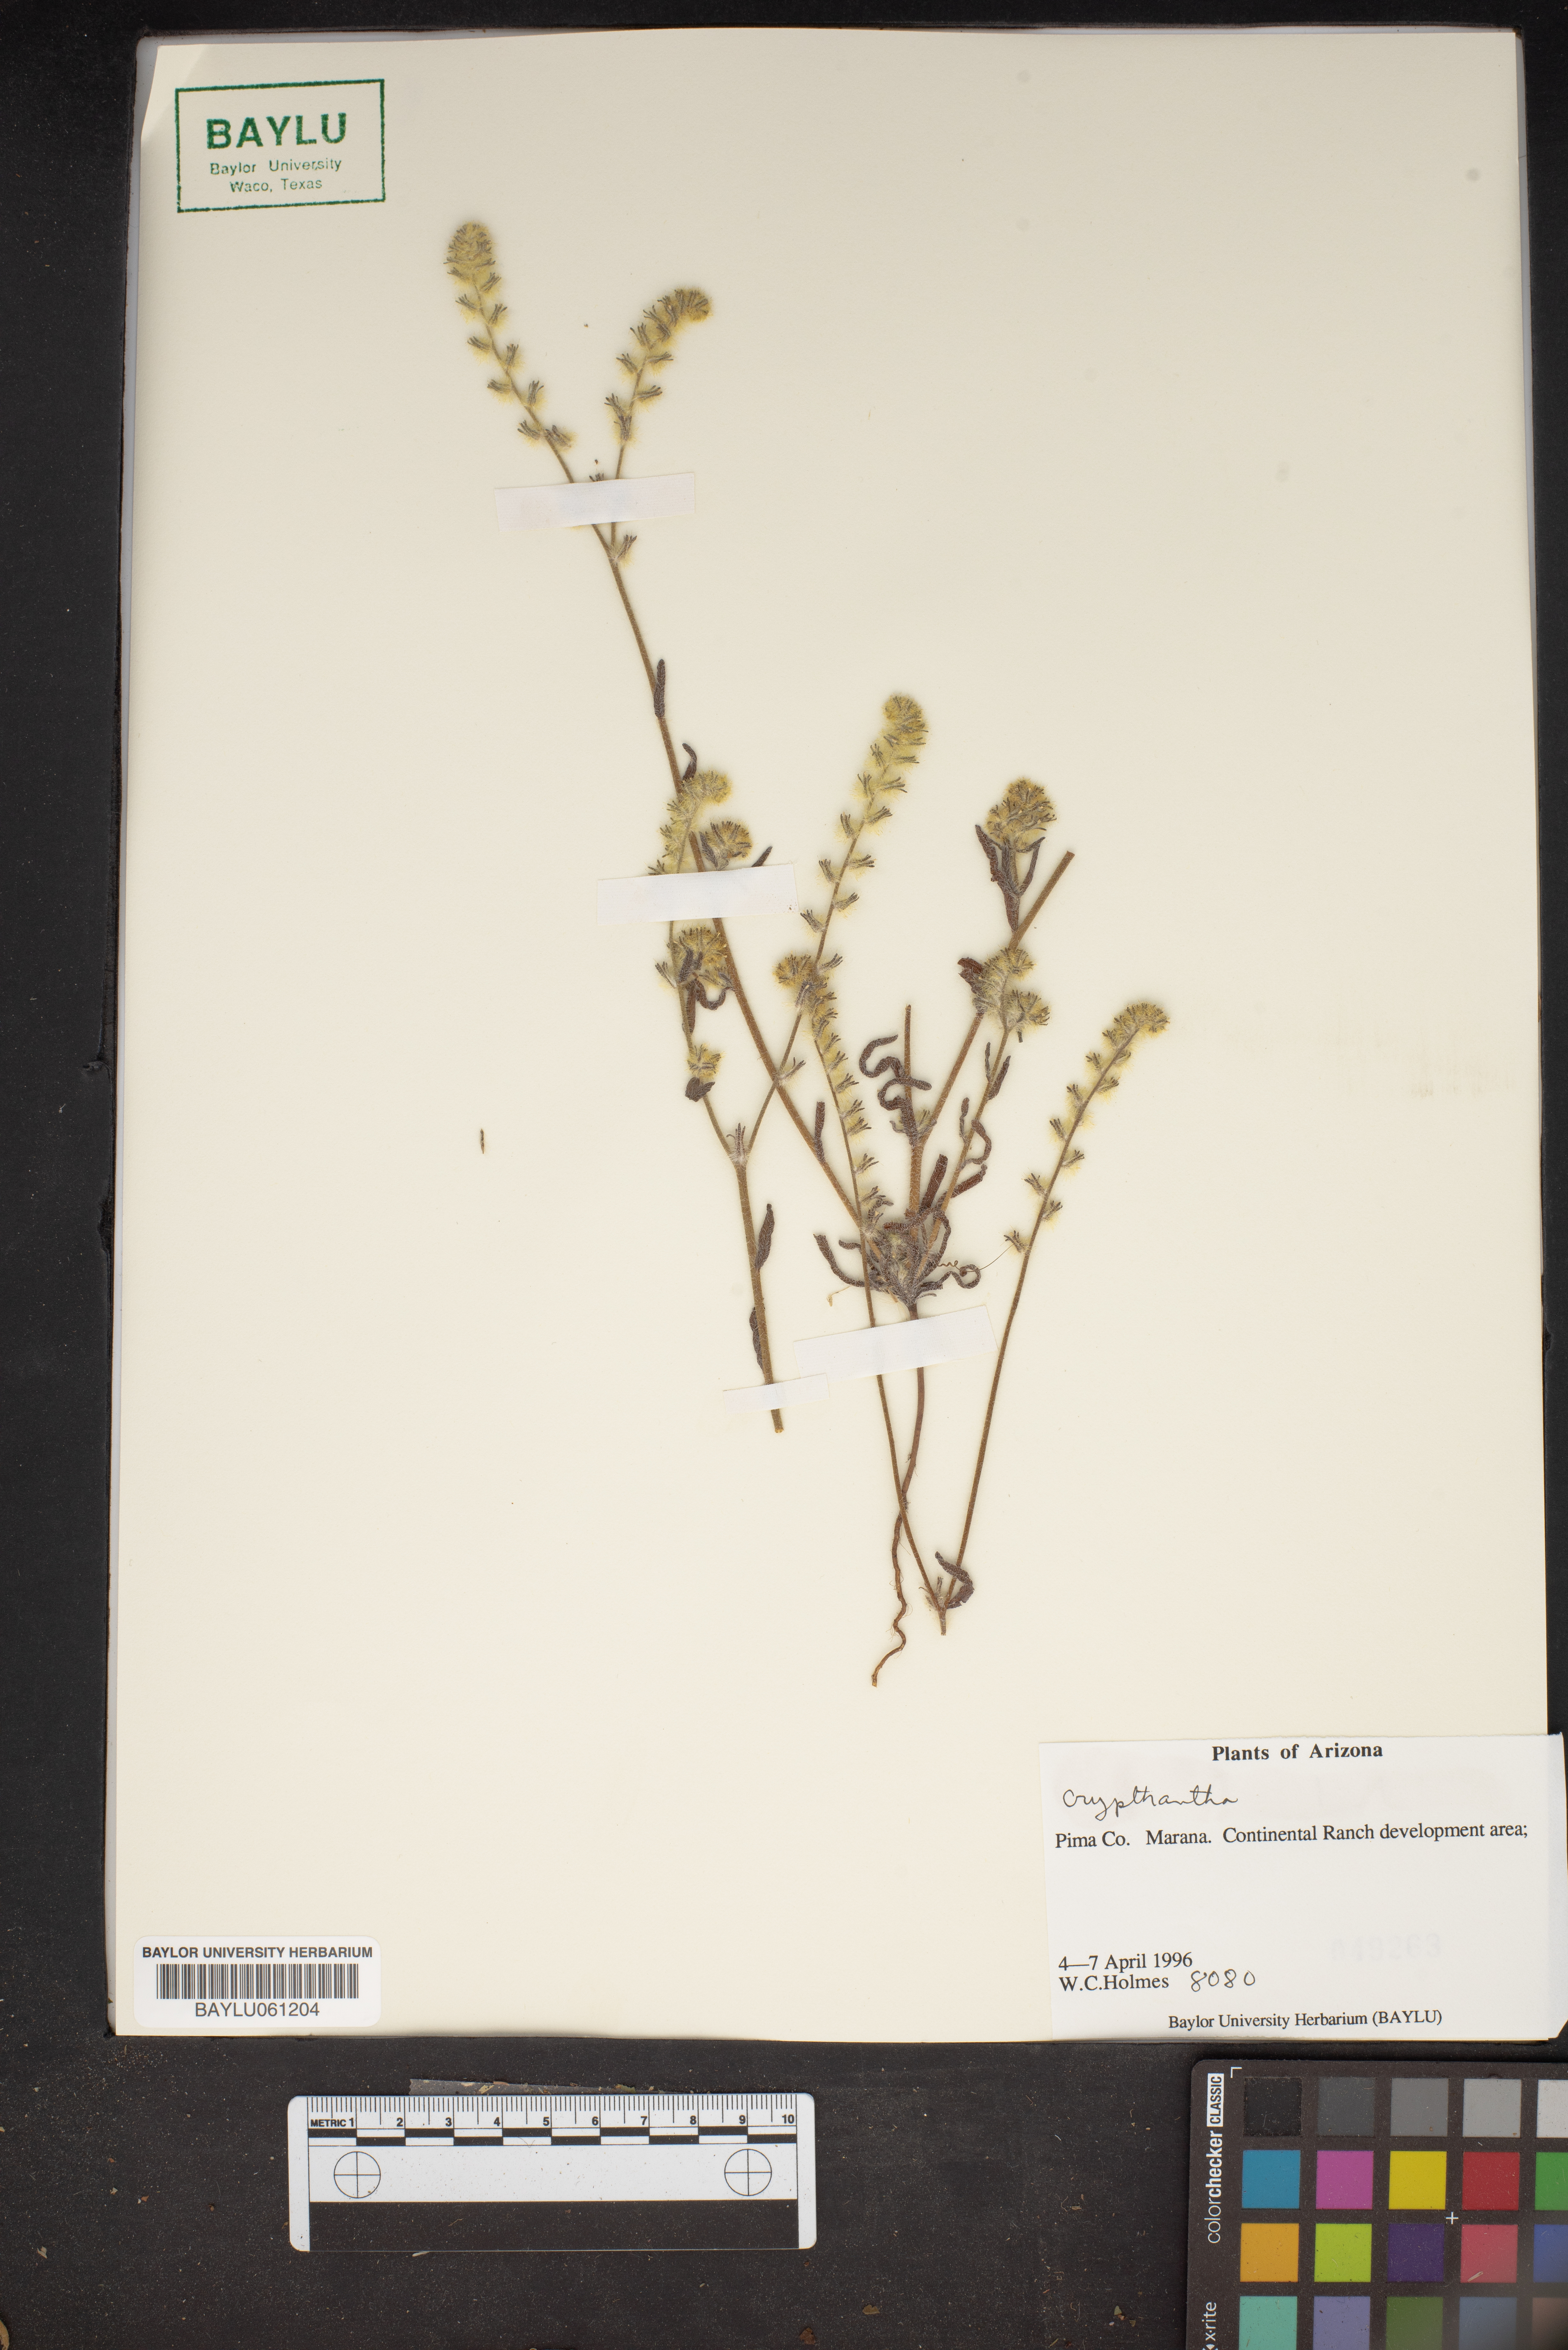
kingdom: Plantae
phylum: Tracheophyta
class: Magnoliopsida
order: Boraginales
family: Boraginaceae
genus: Cryptantha
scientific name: Cryptantha
